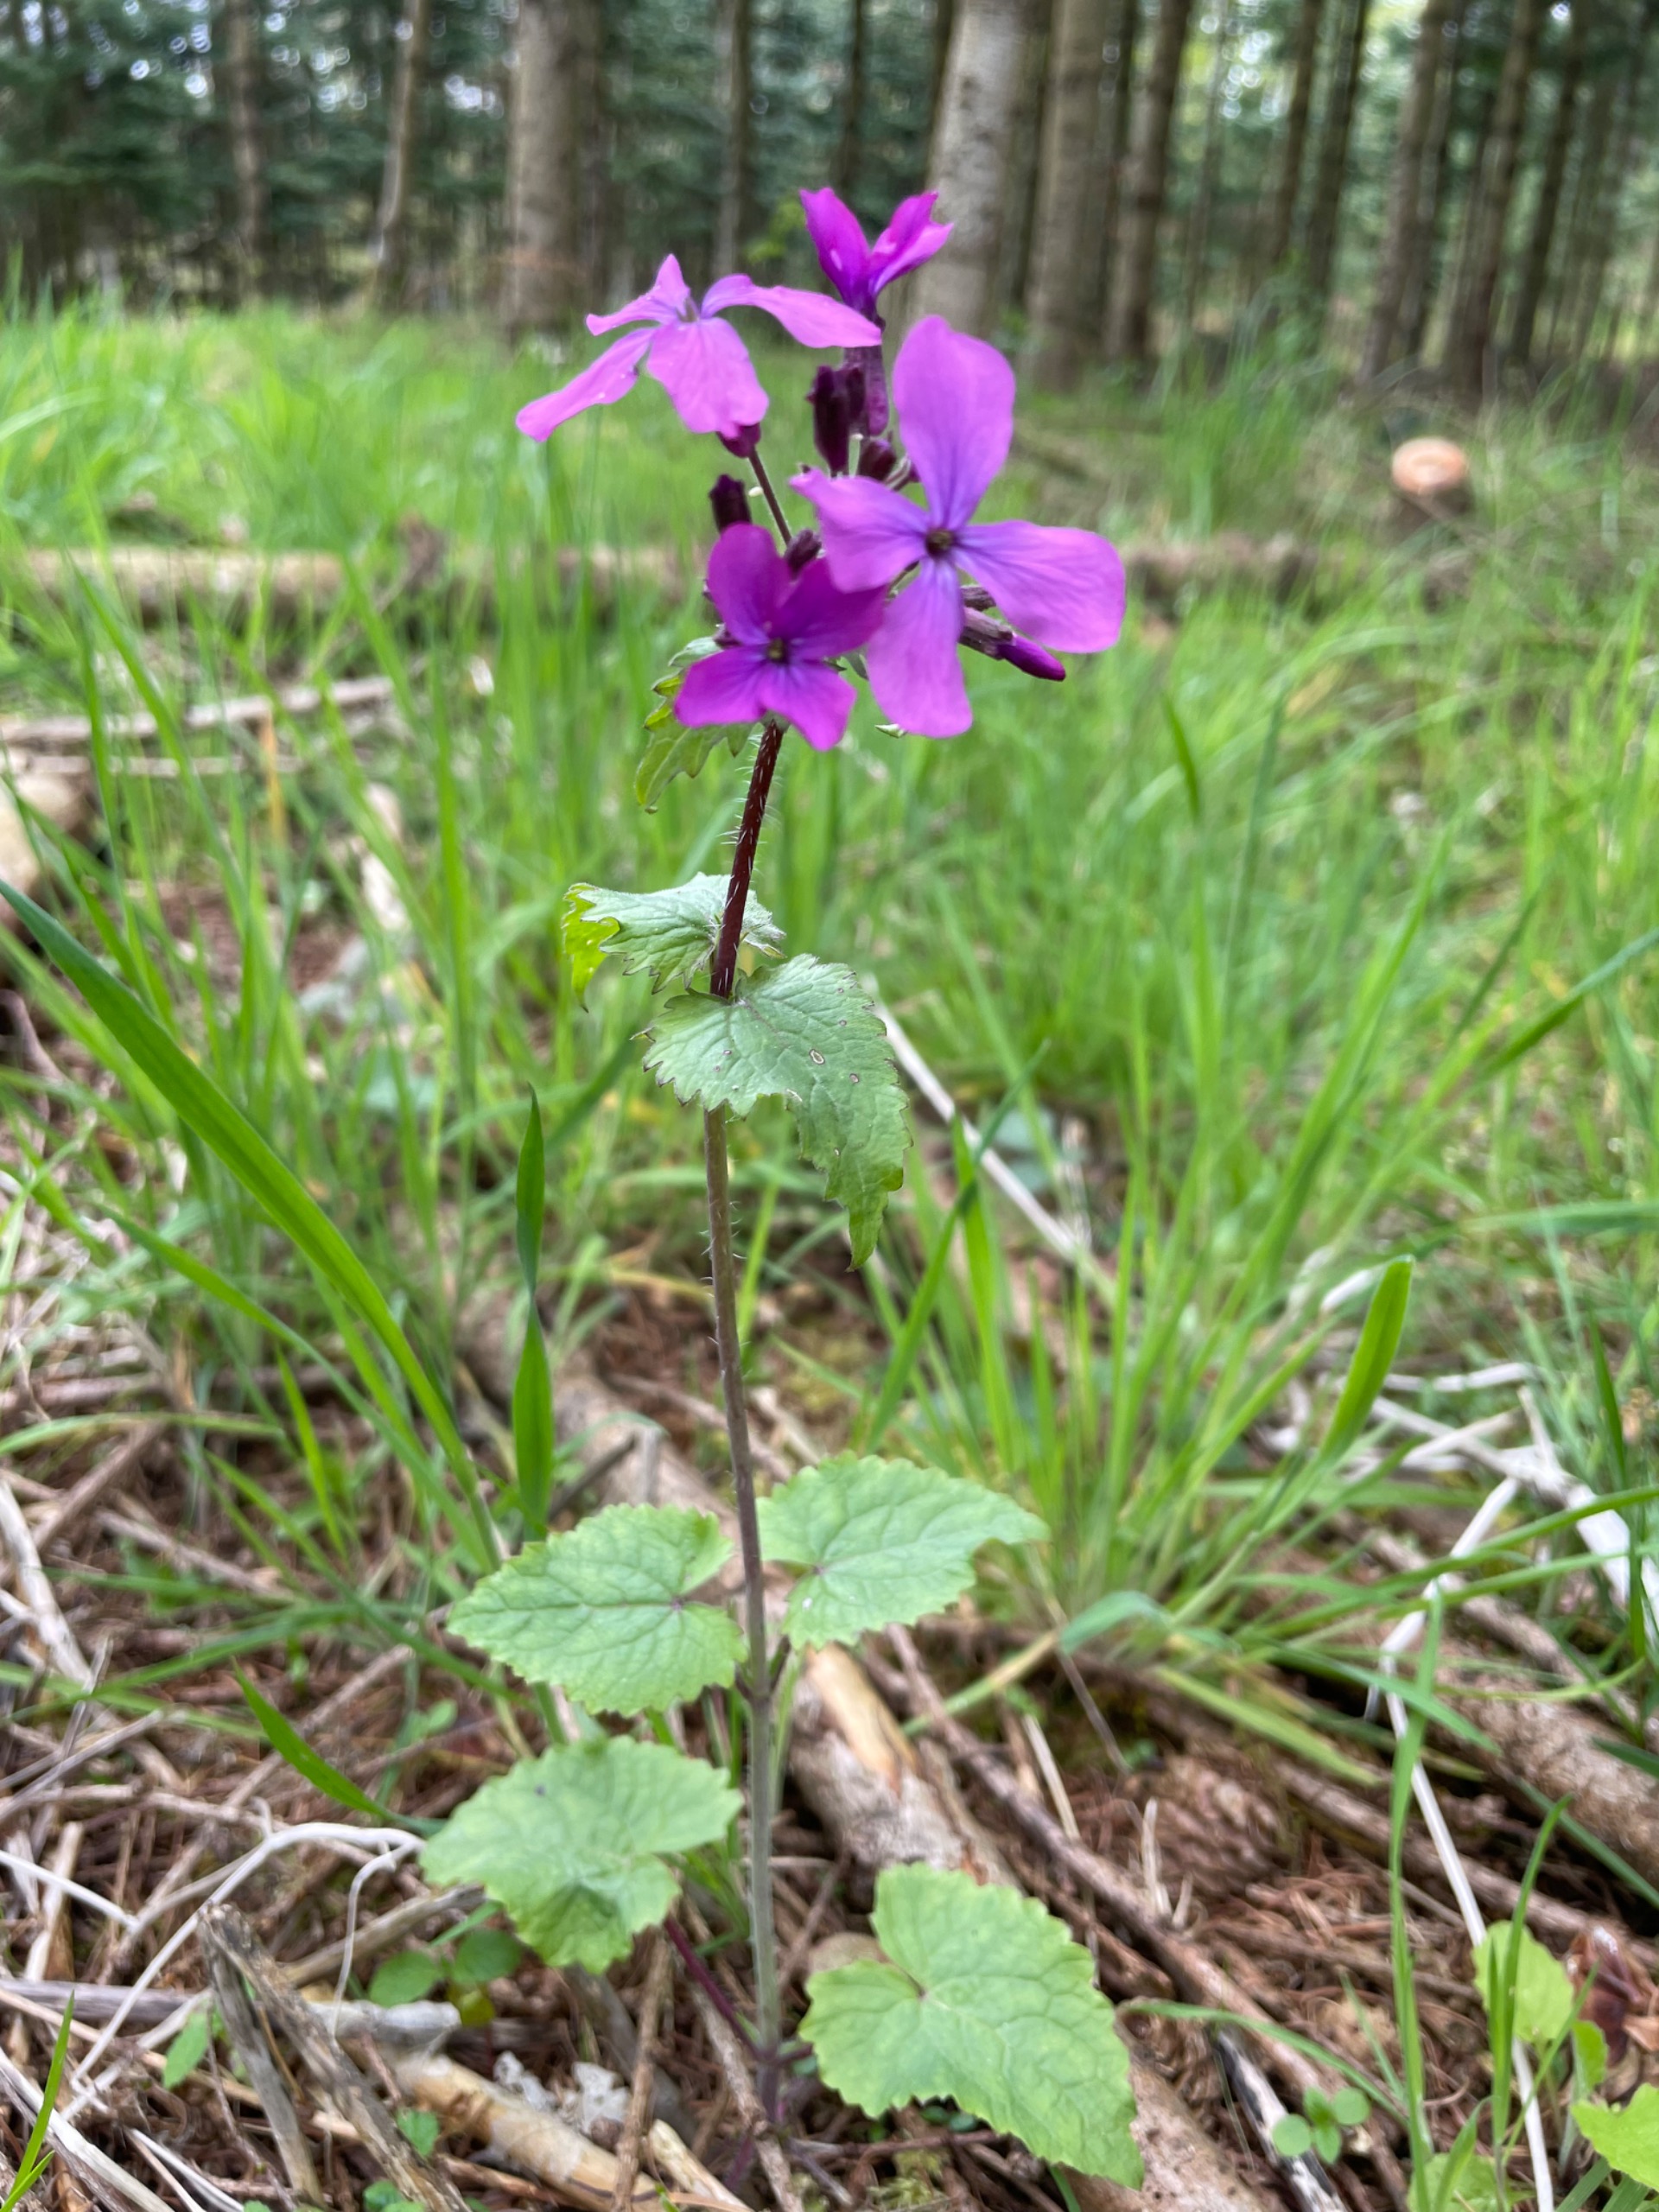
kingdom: Plantae
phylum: Tracheophyta
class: Magnoliopsida
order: Brassicales
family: Brassicaceae
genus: Lunaria
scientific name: Lunaria annua
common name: Judaspenge
